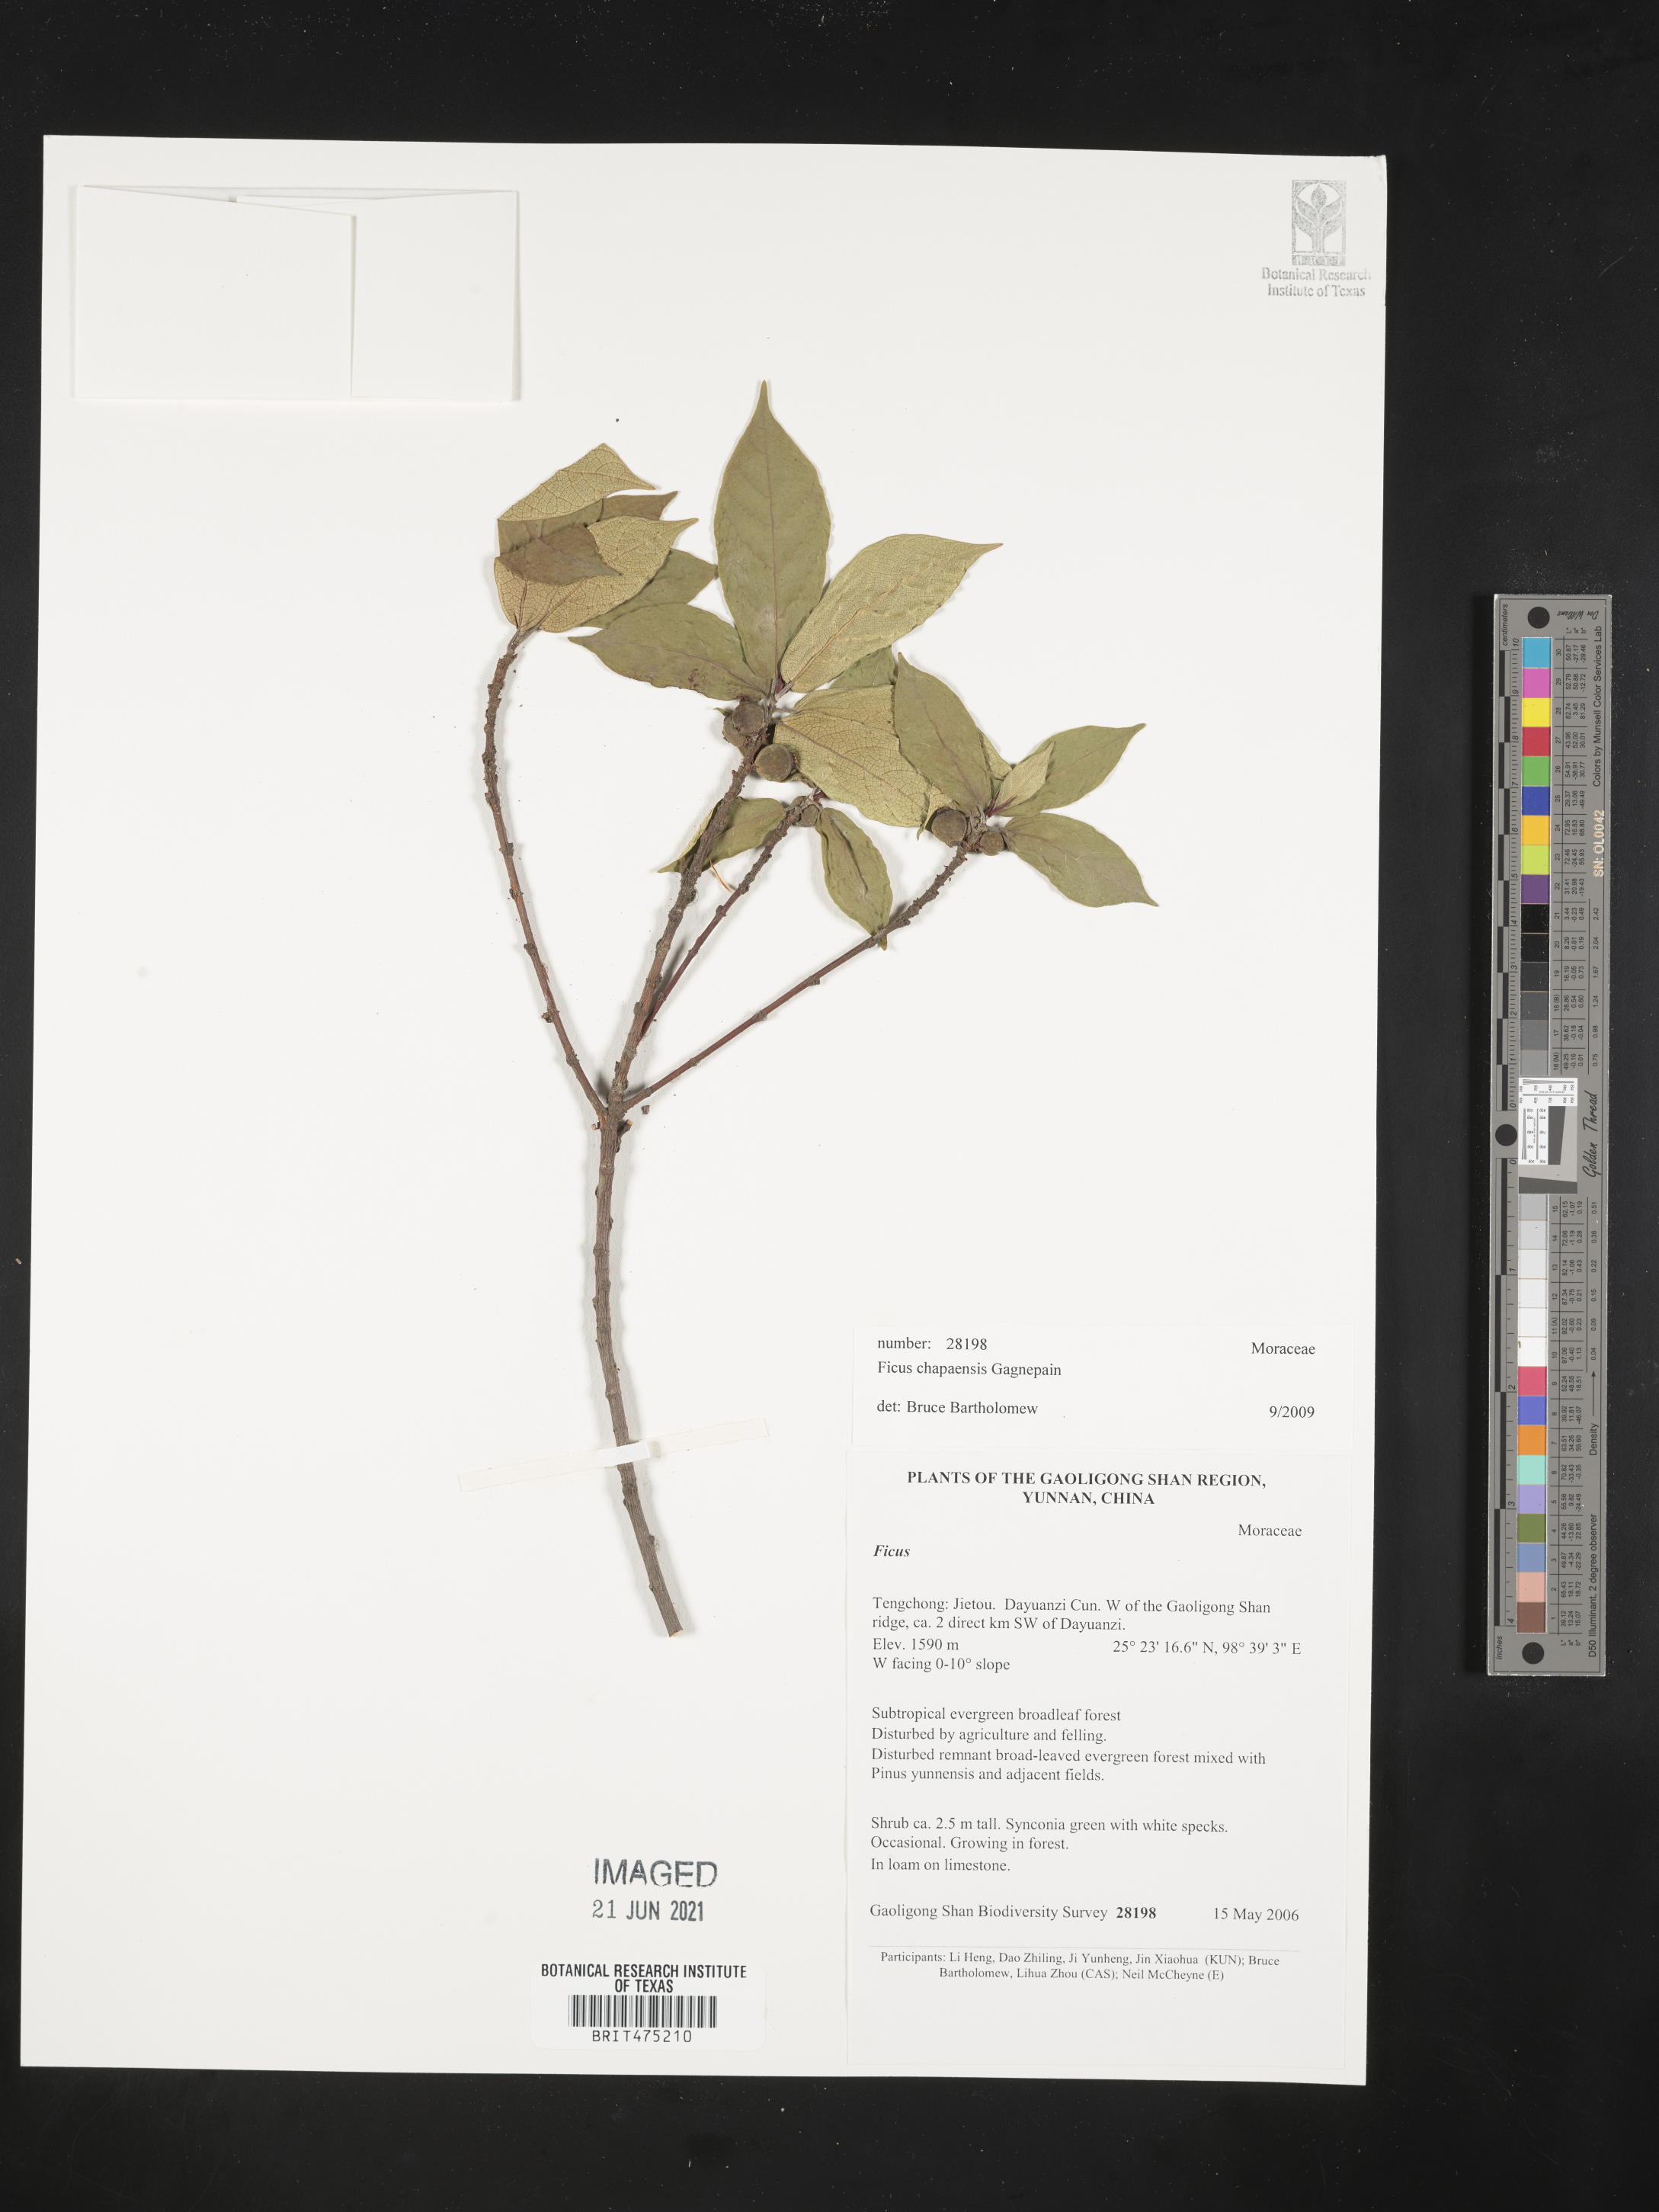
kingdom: Plantae
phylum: Tracheophyta
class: Magnoliopsida
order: Rosales
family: Moraceae
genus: Ficus
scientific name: Ficus chapaensis
